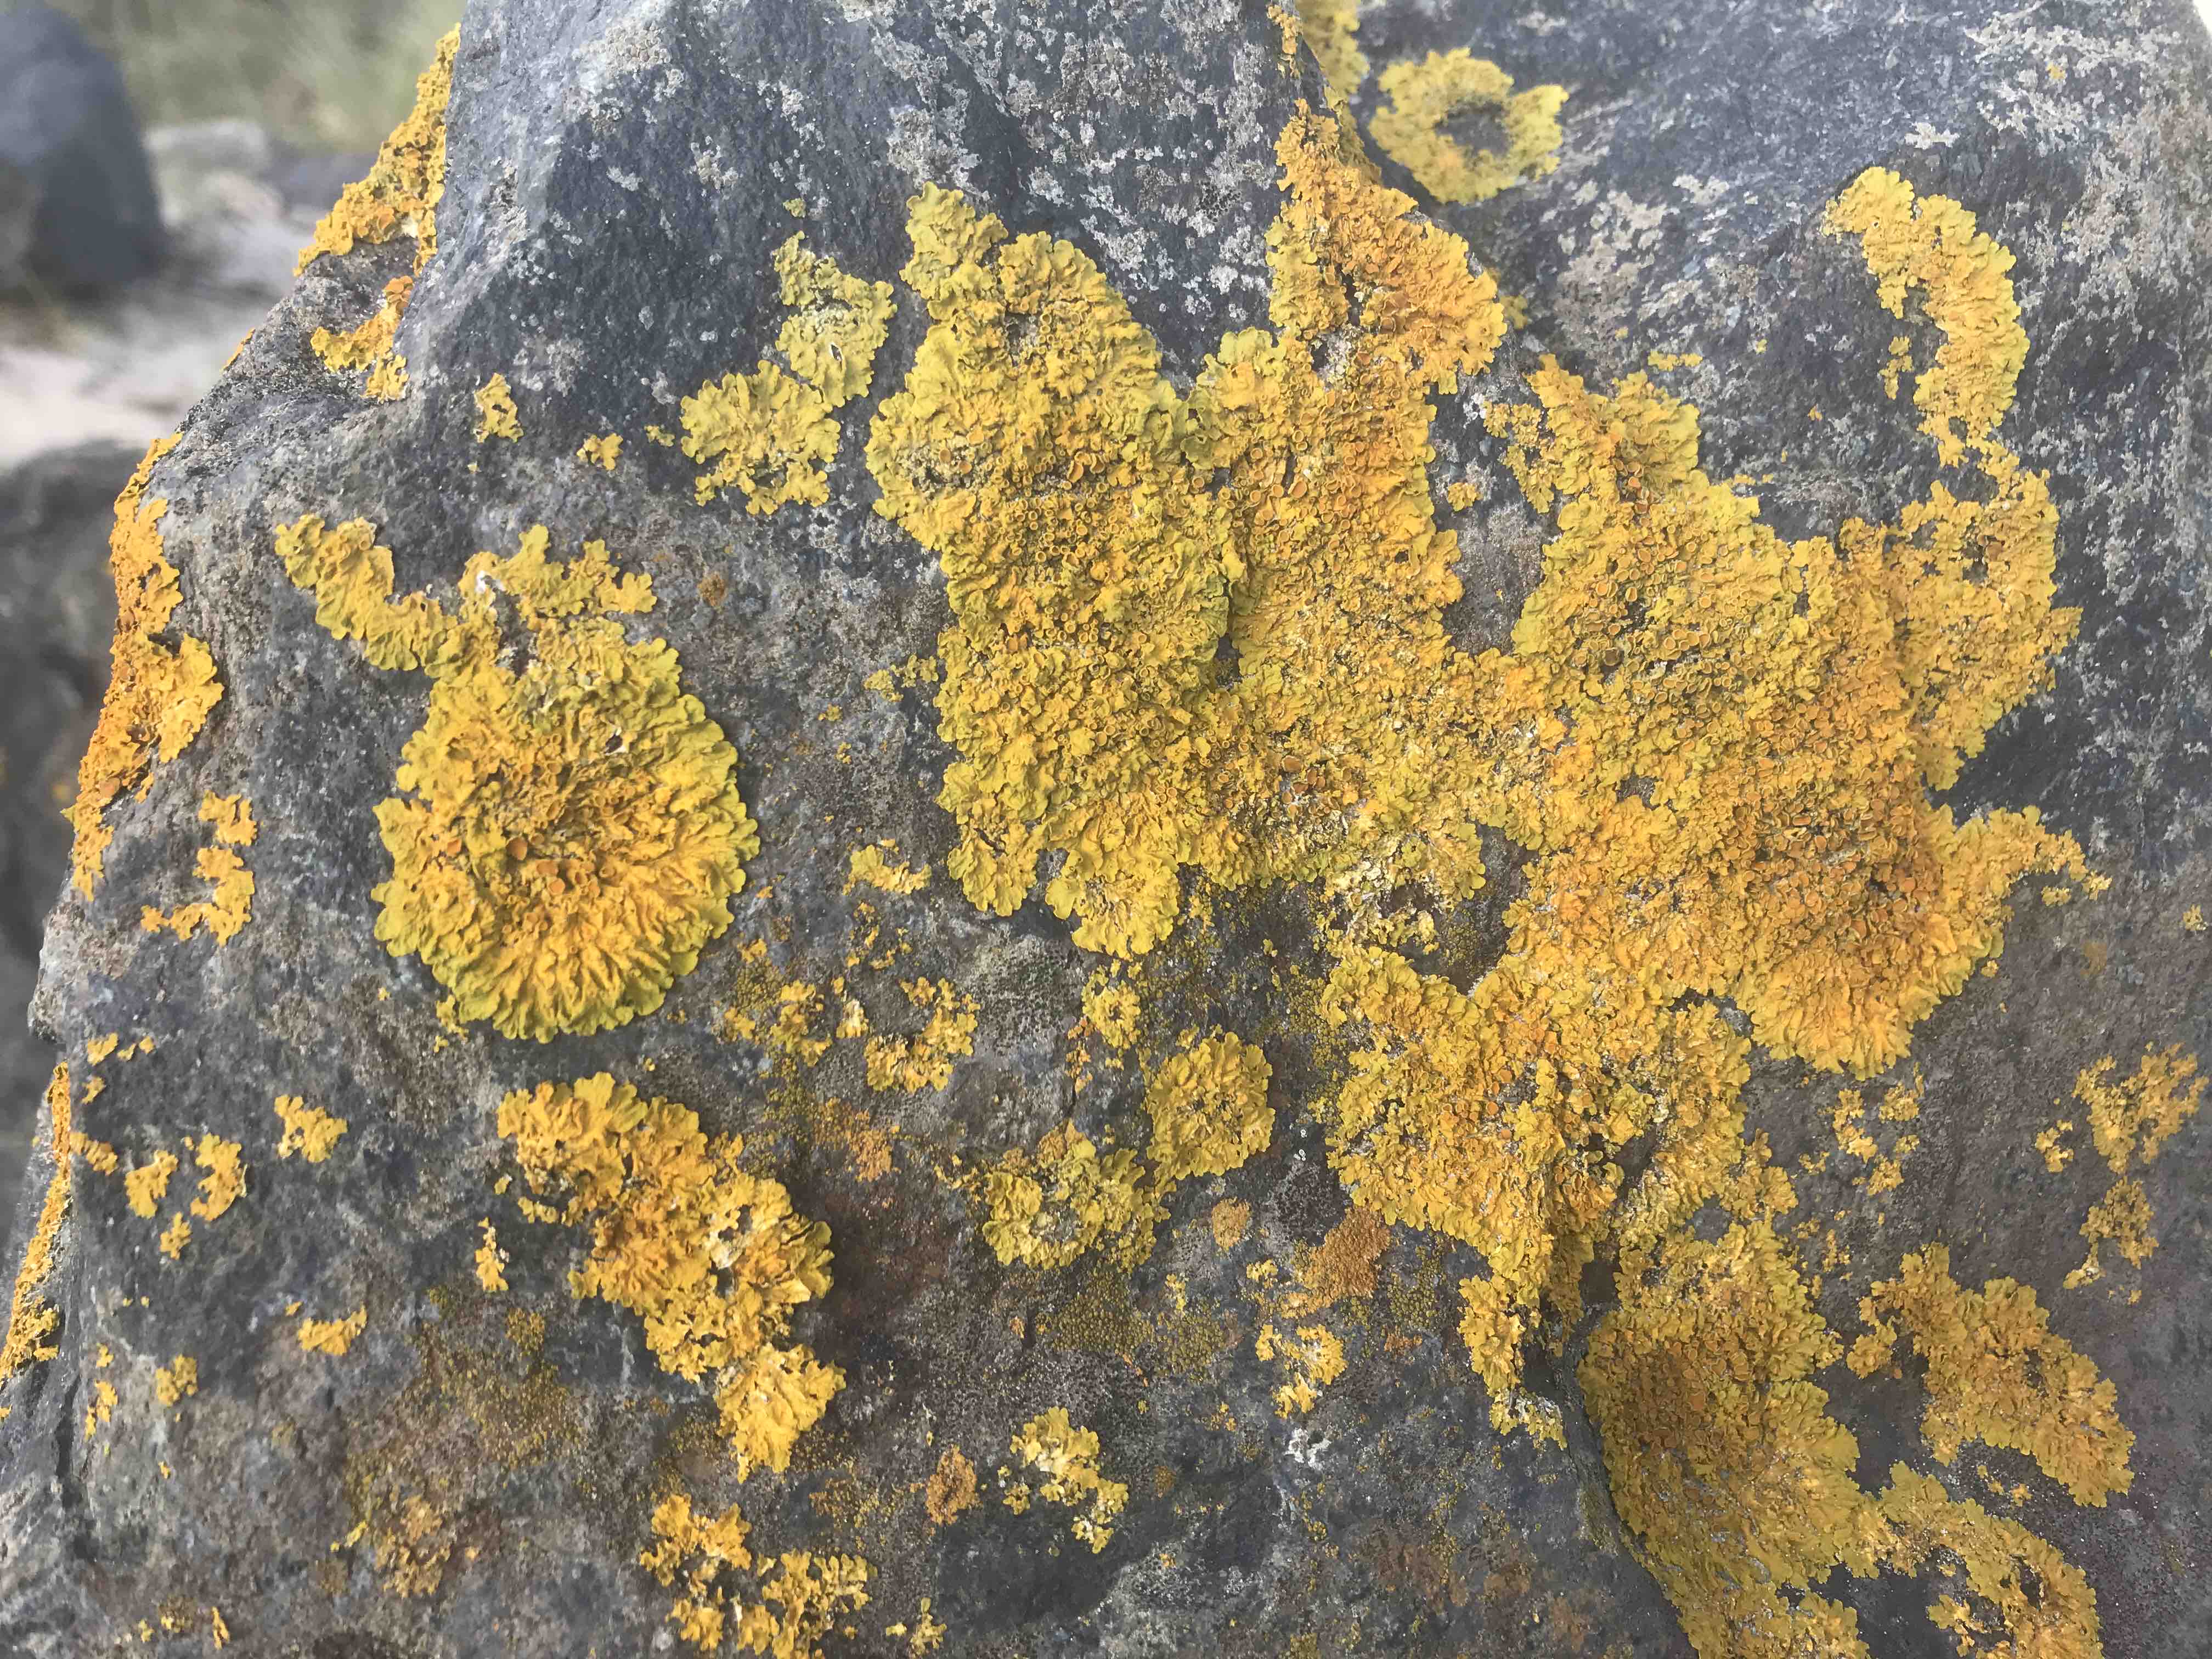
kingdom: Fungi
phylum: Ascomycota
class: Lecanoromycetes
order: Teloschistales
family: Teloschistaceae
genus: Xanthoria
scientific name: Xanthoria parietina
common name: almindelig væggelav
